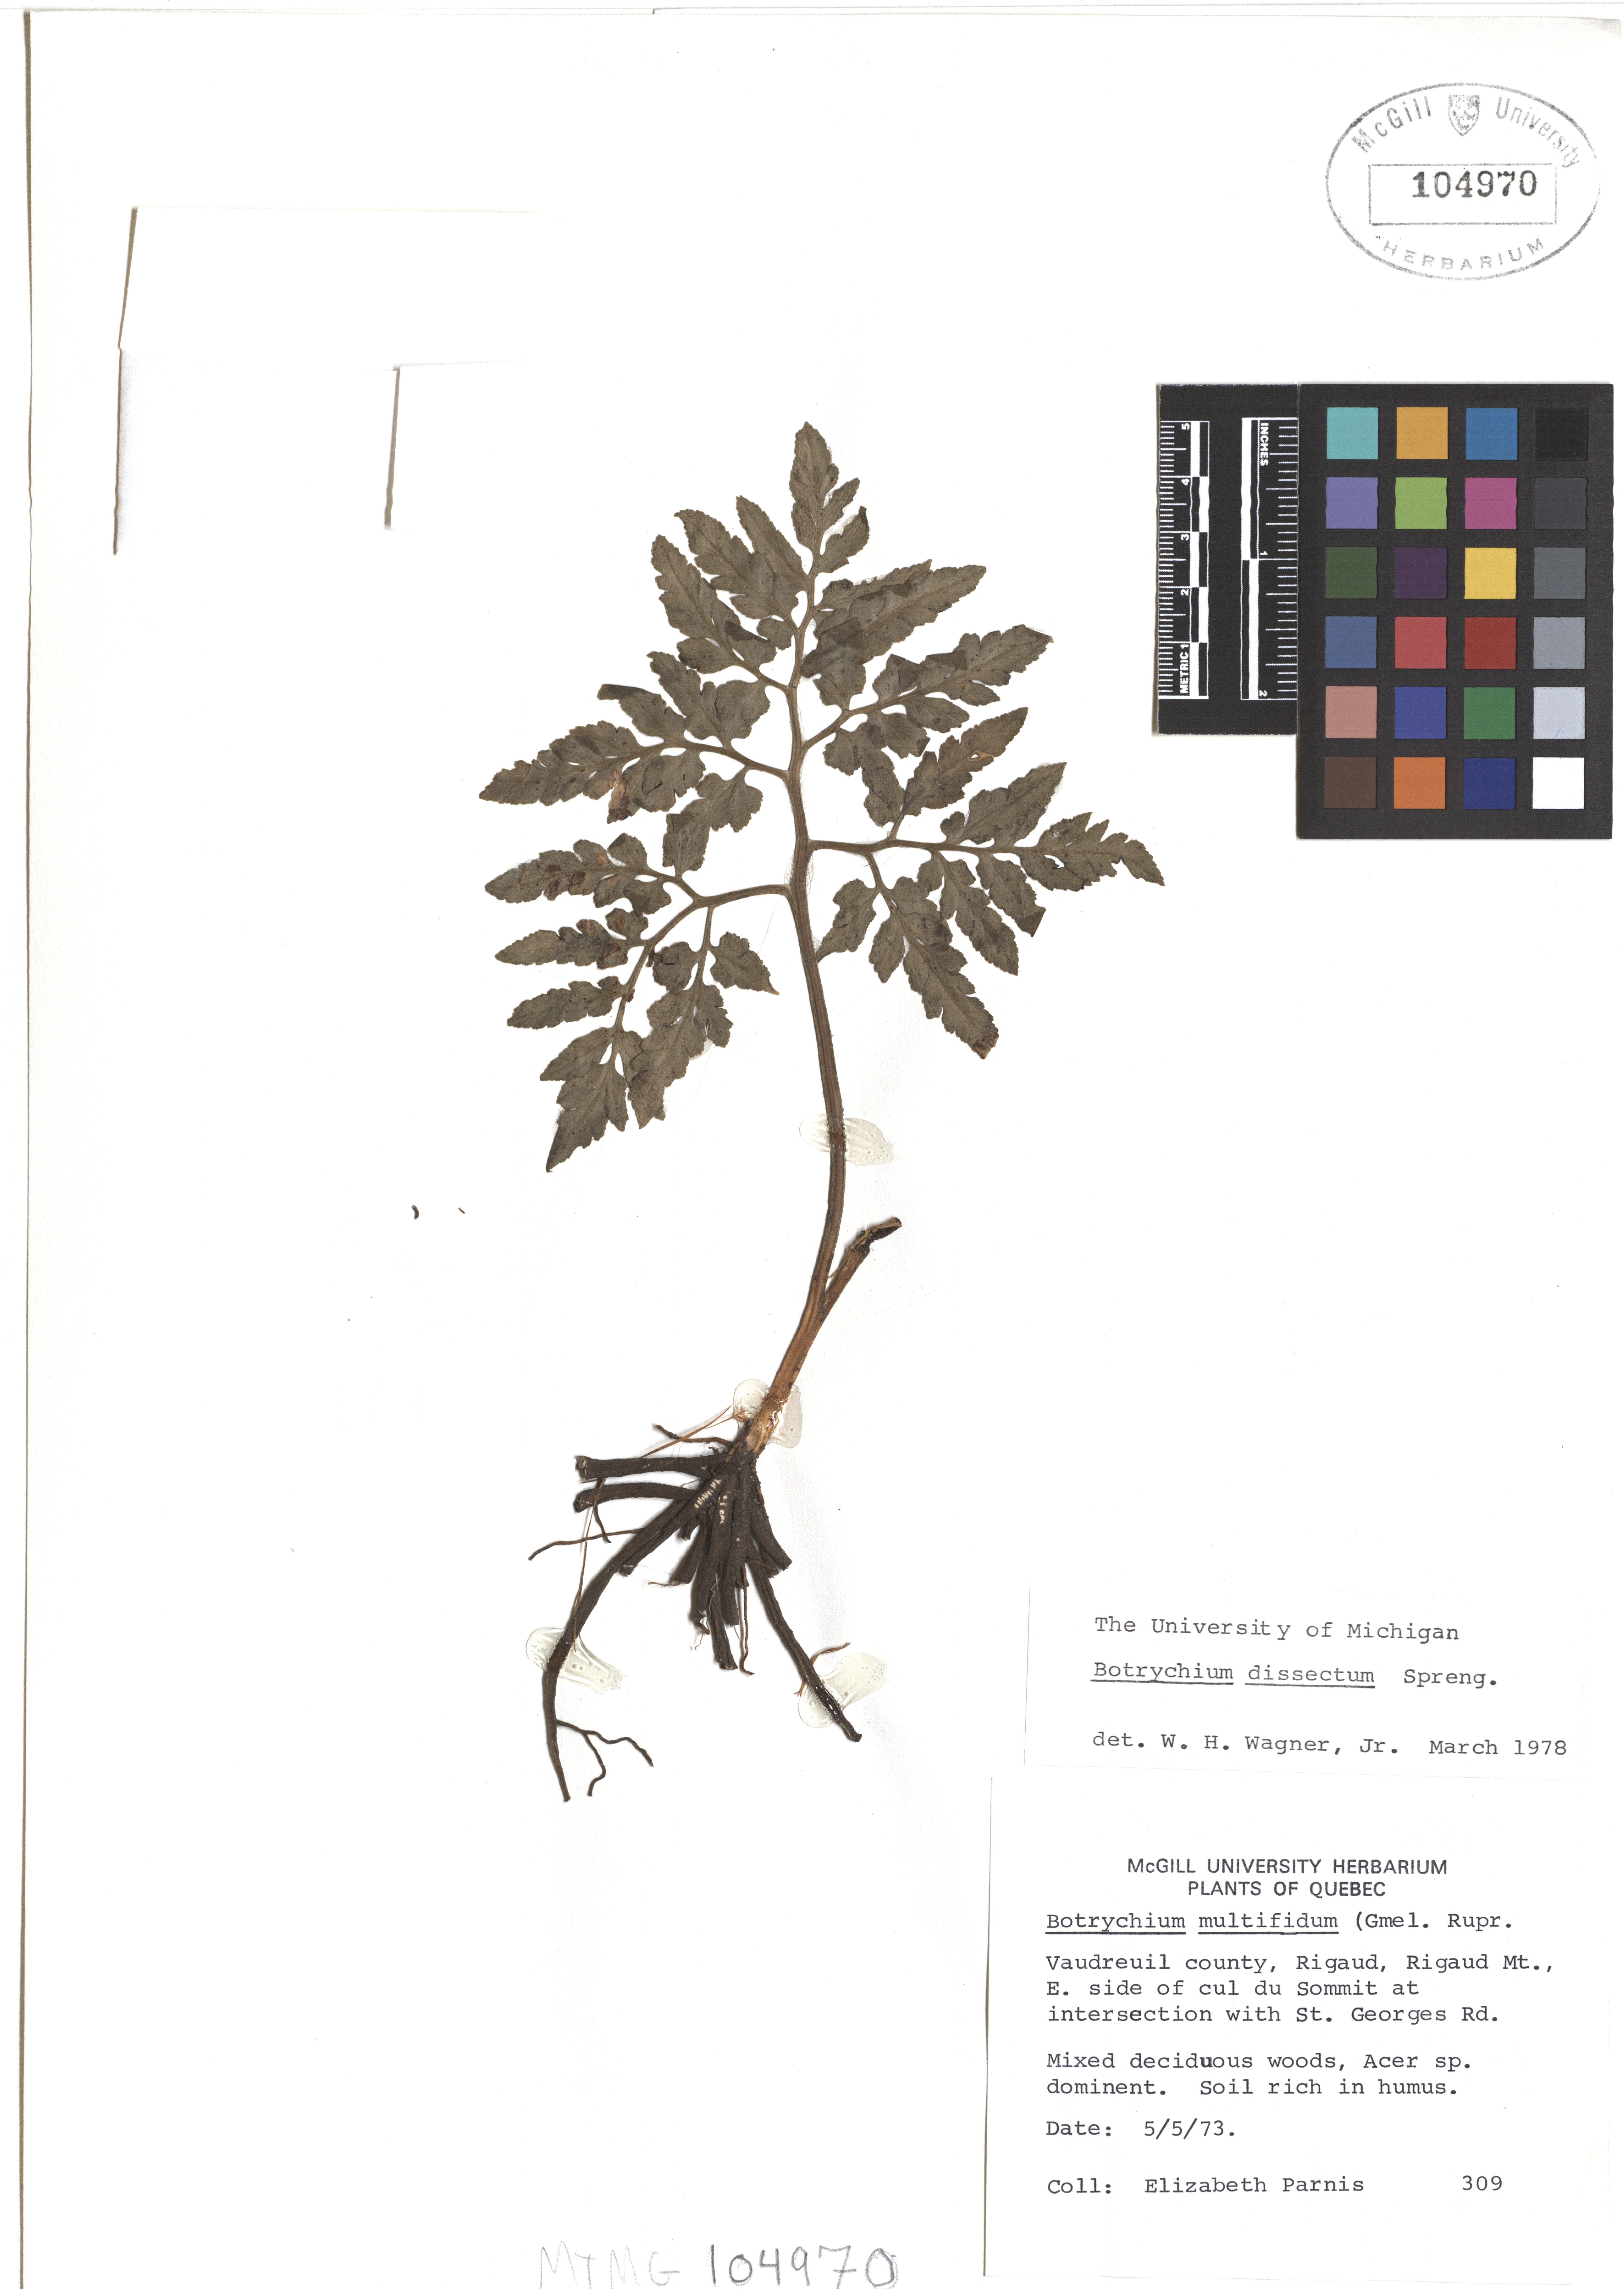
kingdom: Plantae
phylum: Tracheophyta
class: Polypodiopsida
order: Ophioglossales
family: Ophioglossaceae
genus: Sceptridium
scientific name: Sceptridium dissectum
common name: Cut-leaved grapefern
